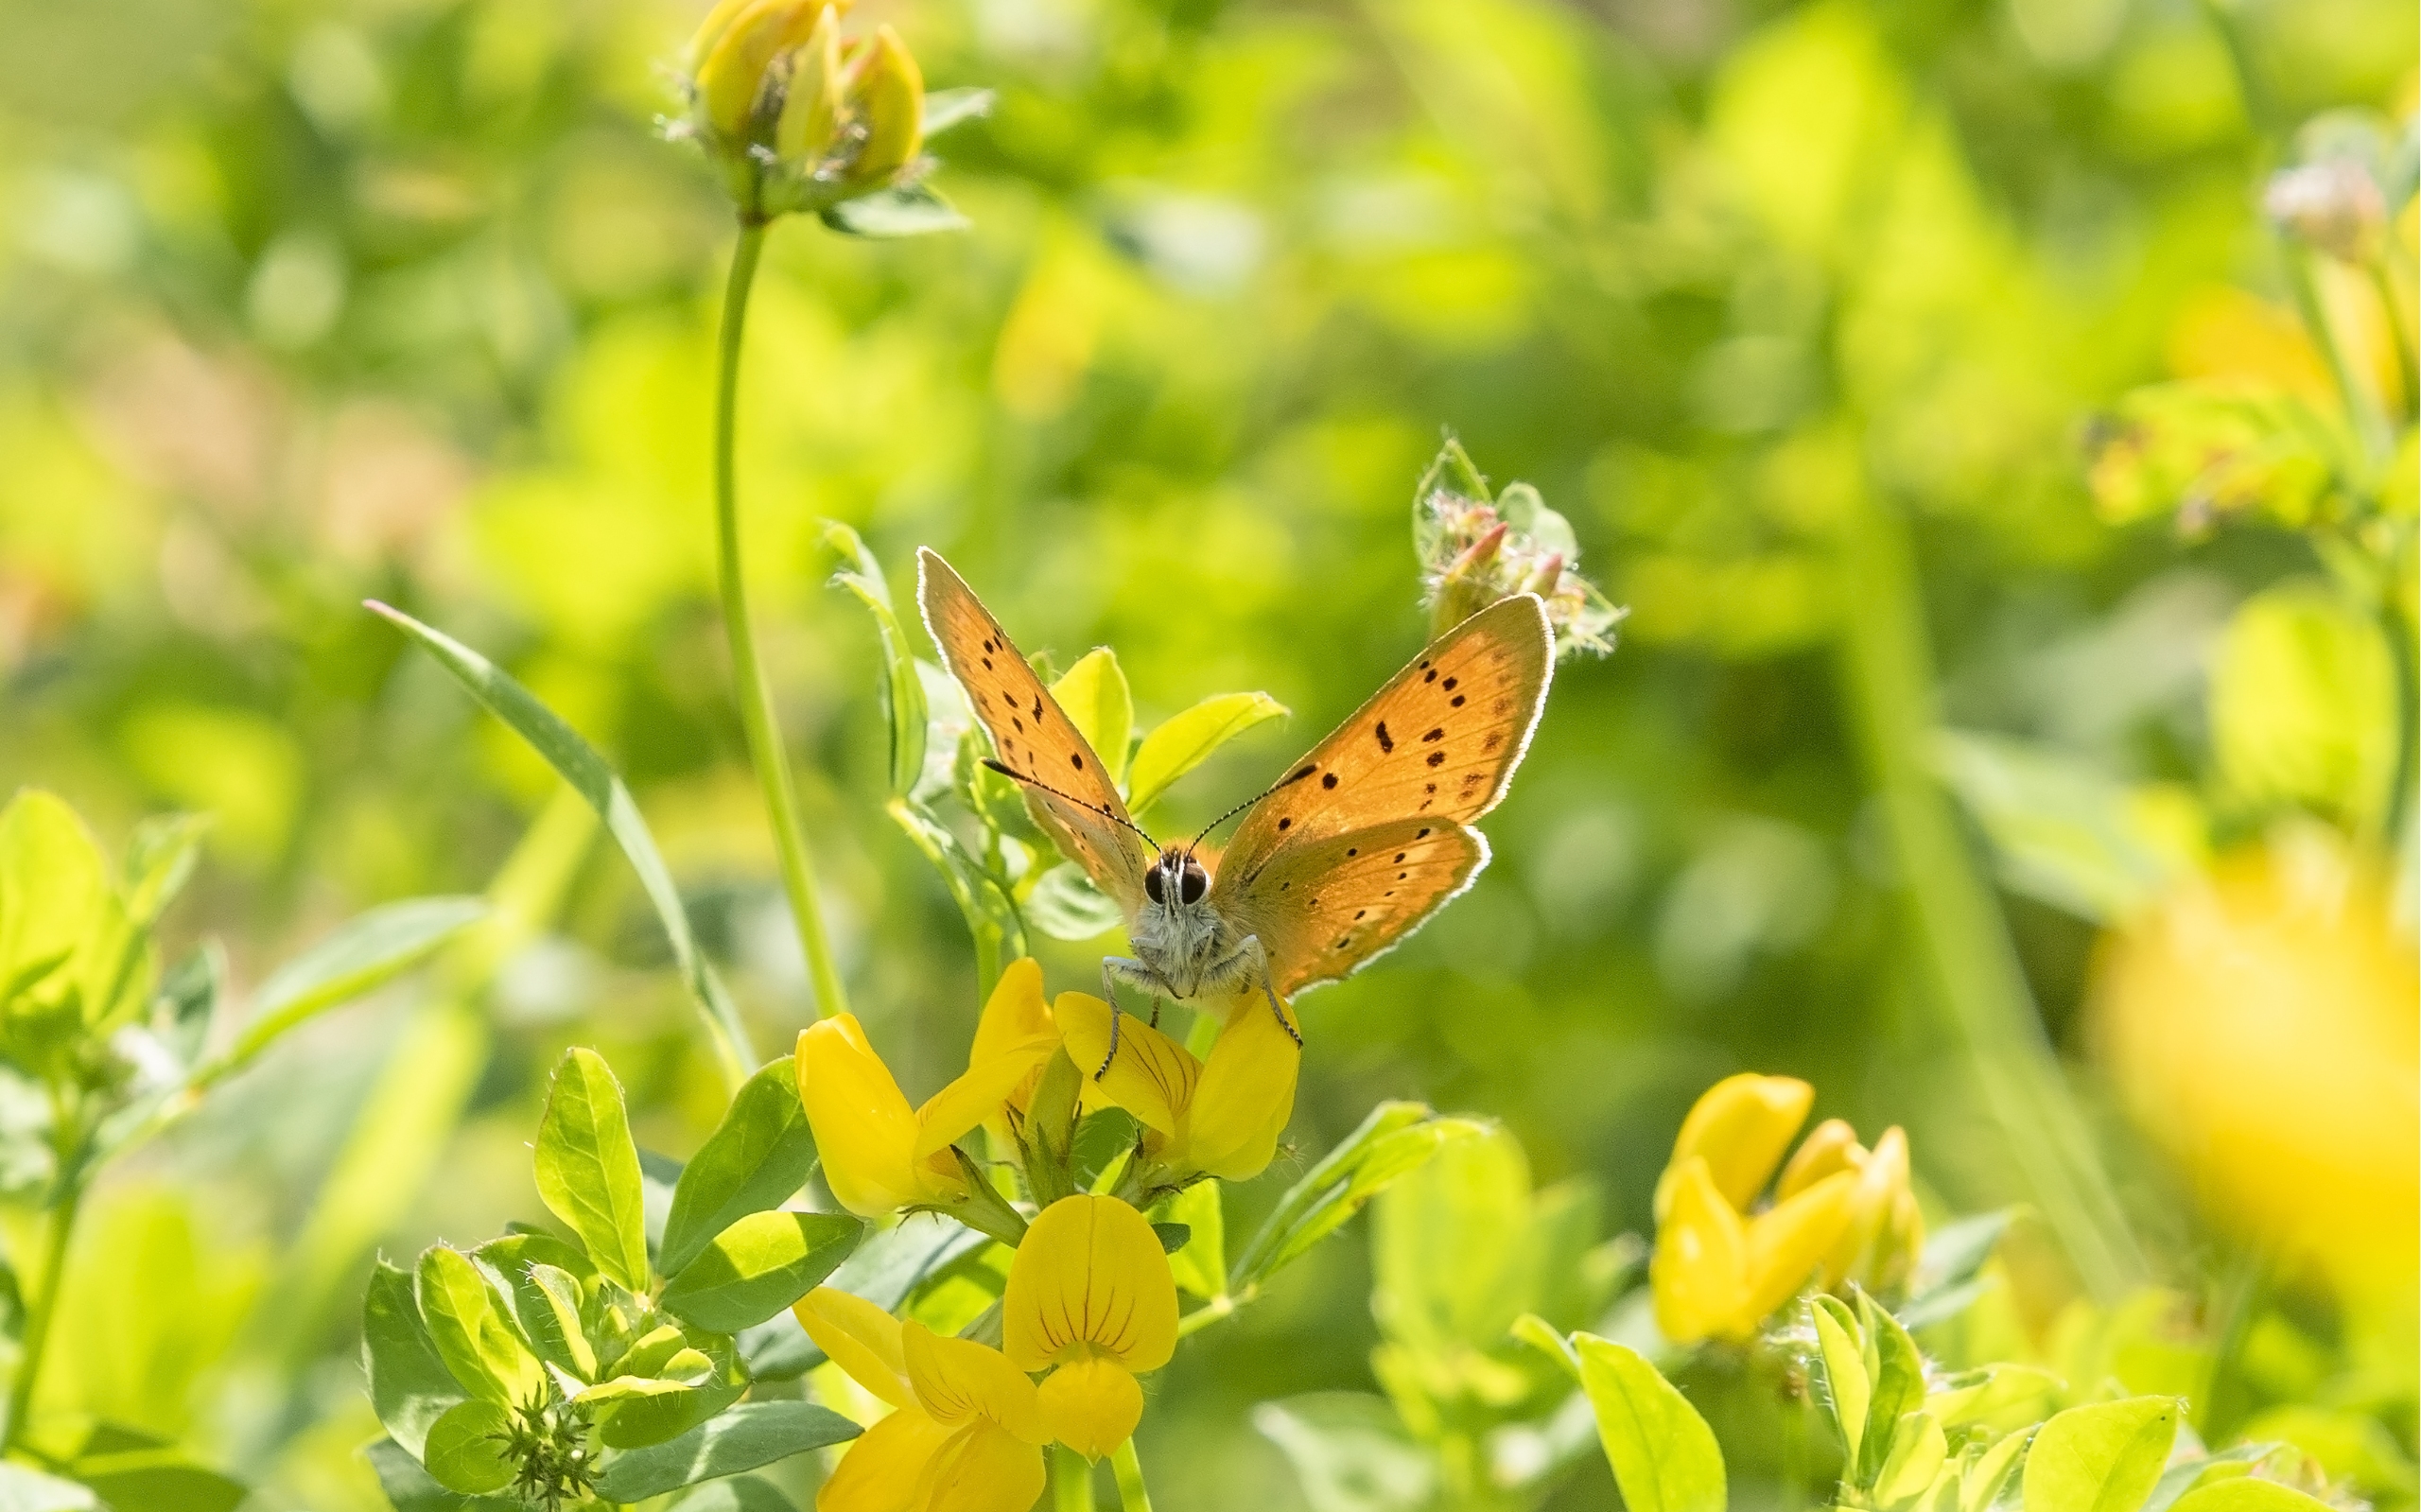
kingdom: Animalia
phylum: Arthropoda
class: Insecta
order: Lepidoptera
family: Lycaenidae
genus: Lycaena
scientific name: Lycaena virgaureae
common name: Dukatsommerfugl
